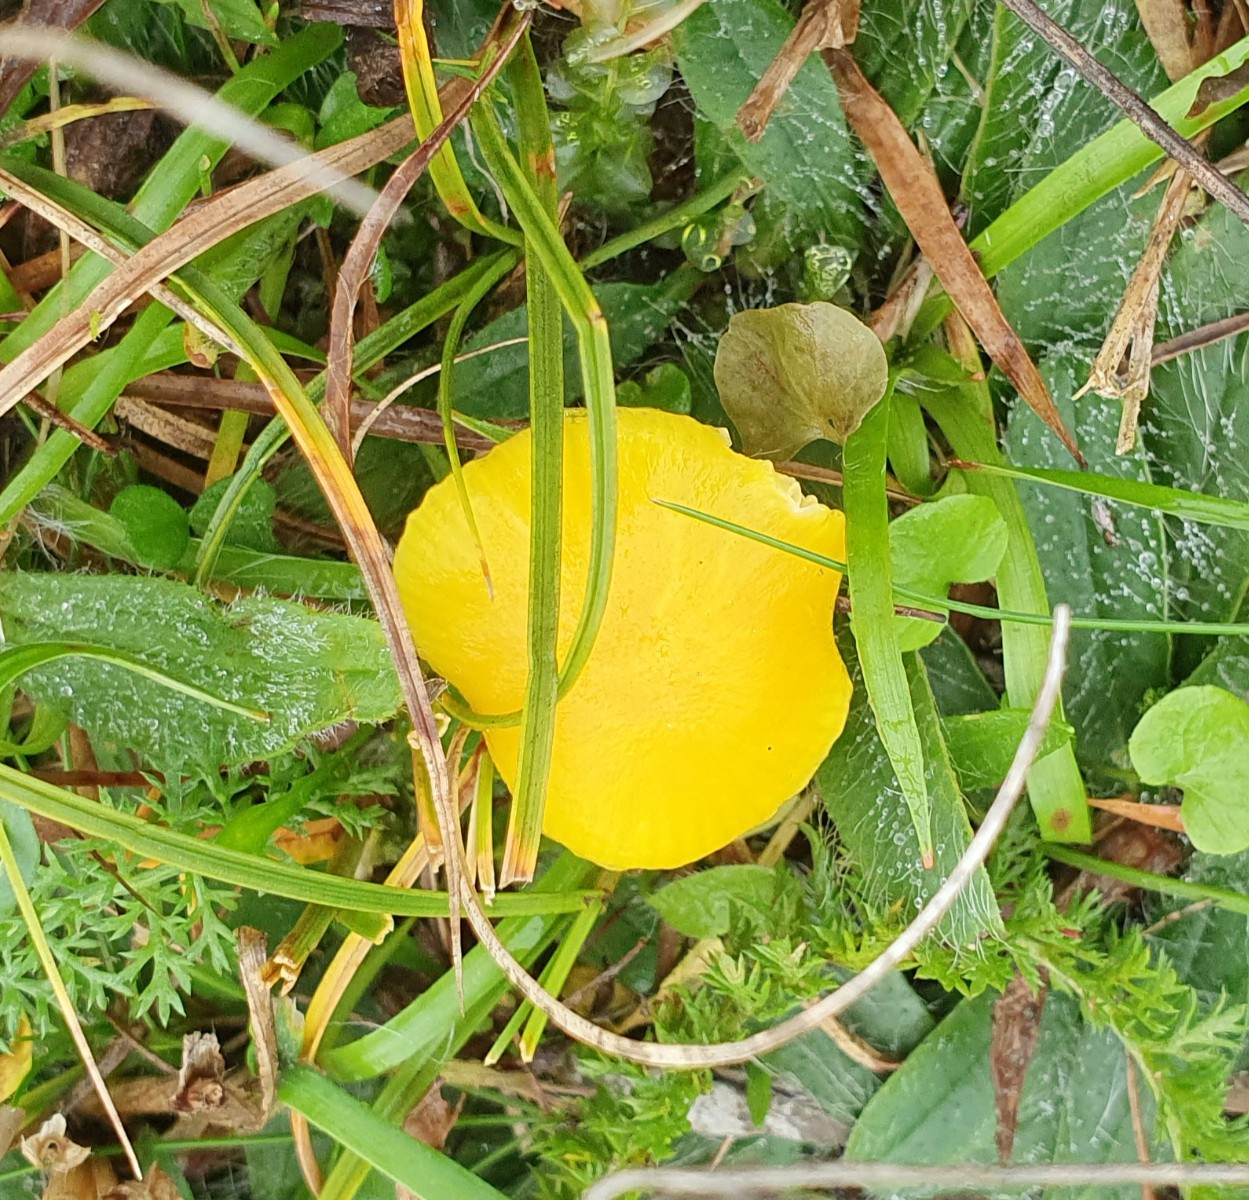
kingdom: Fungi
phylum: Basidiomycota
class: Agaricomycetes
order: Agaricales
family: Hygrophoraceae
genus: Hygrocybe
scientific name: Hygrocybe ceracea
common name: voksgul vokshat
